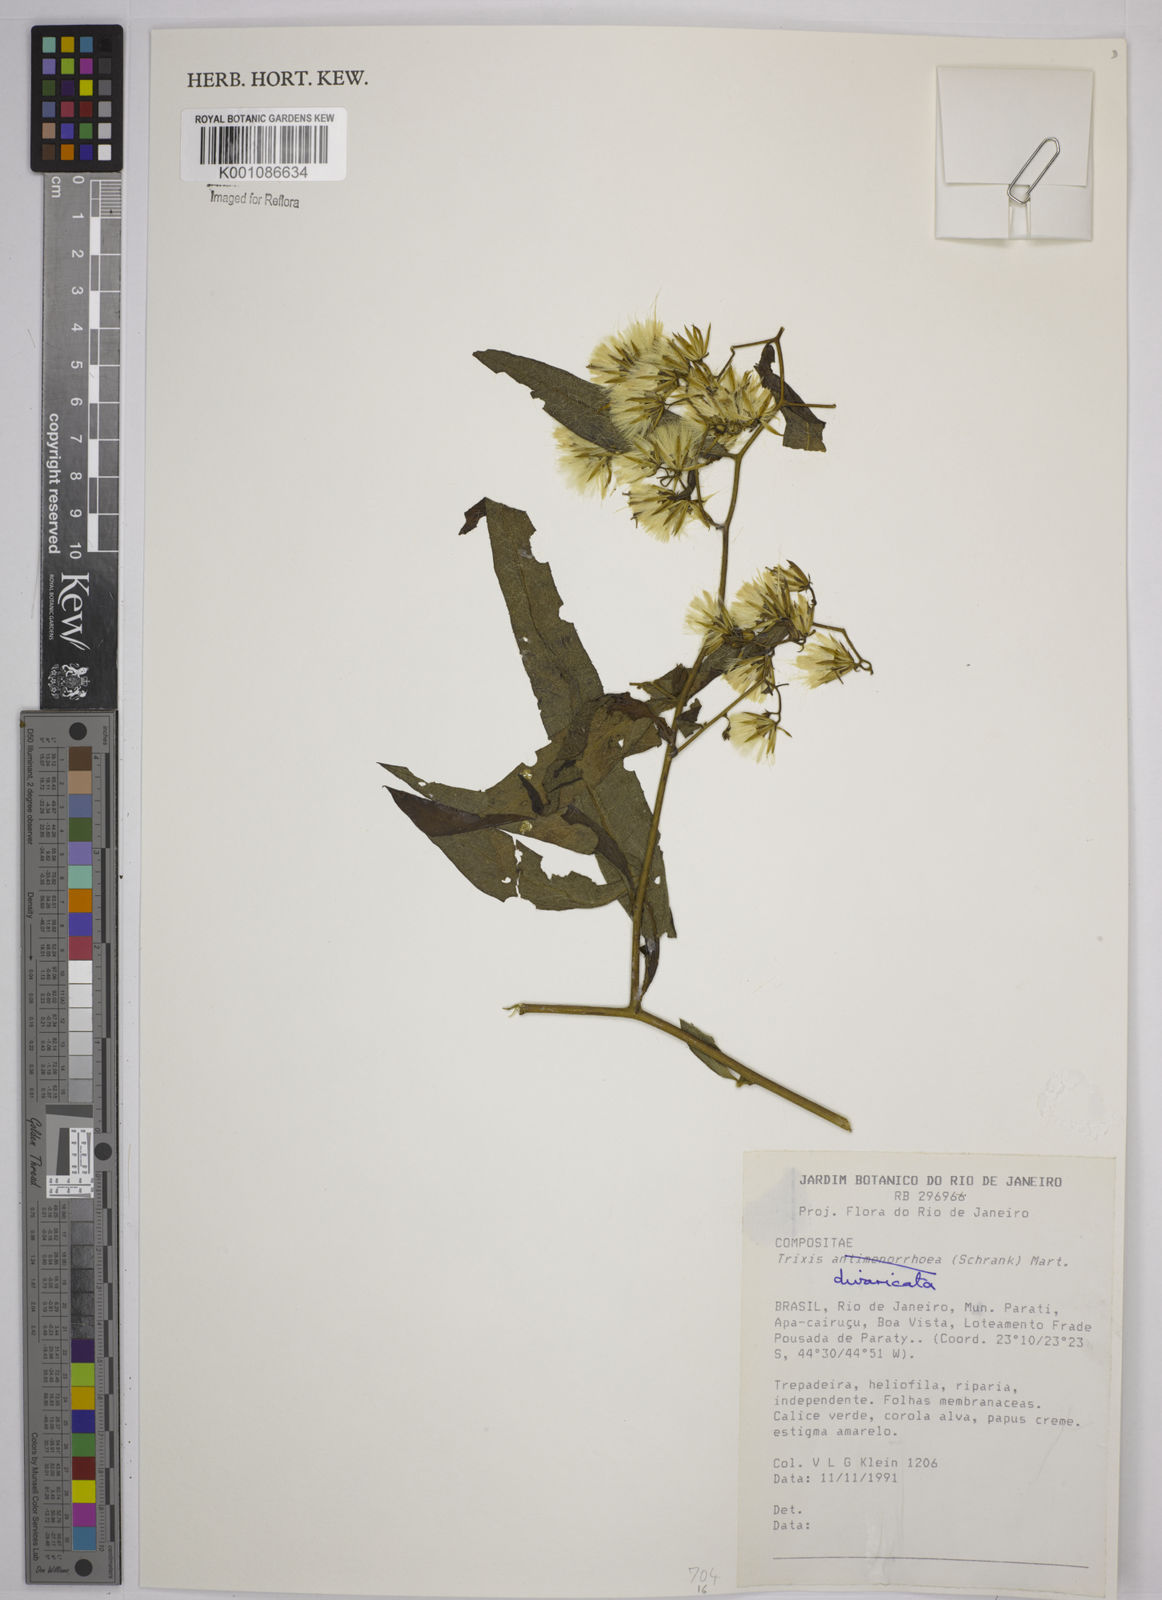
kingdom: Plantae
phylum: Tracheophyta
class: Magnoliopsida
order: Asterales
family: Asteraceae
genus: Trixis
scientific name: Trixis divaricata
